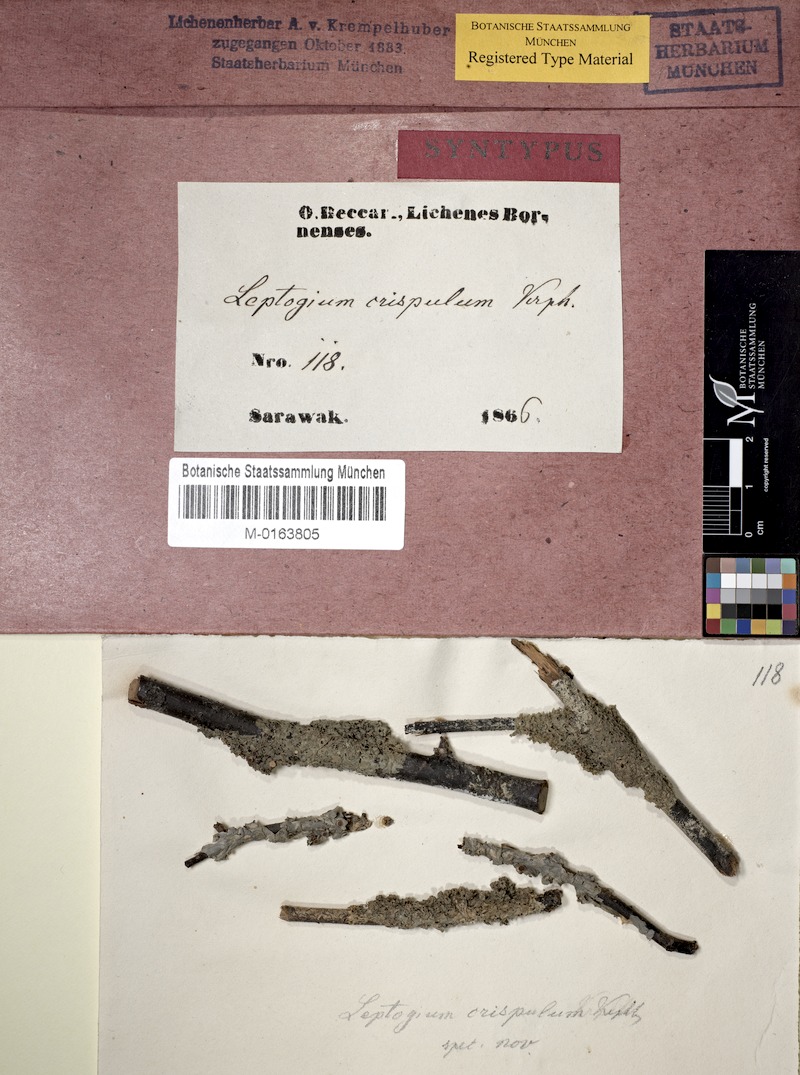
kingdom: Fungi
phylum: Ascomycota
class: Lecanoromycetes
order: Peltigerales
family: Collemataceae
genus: Leptogium
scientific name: Leptogium
